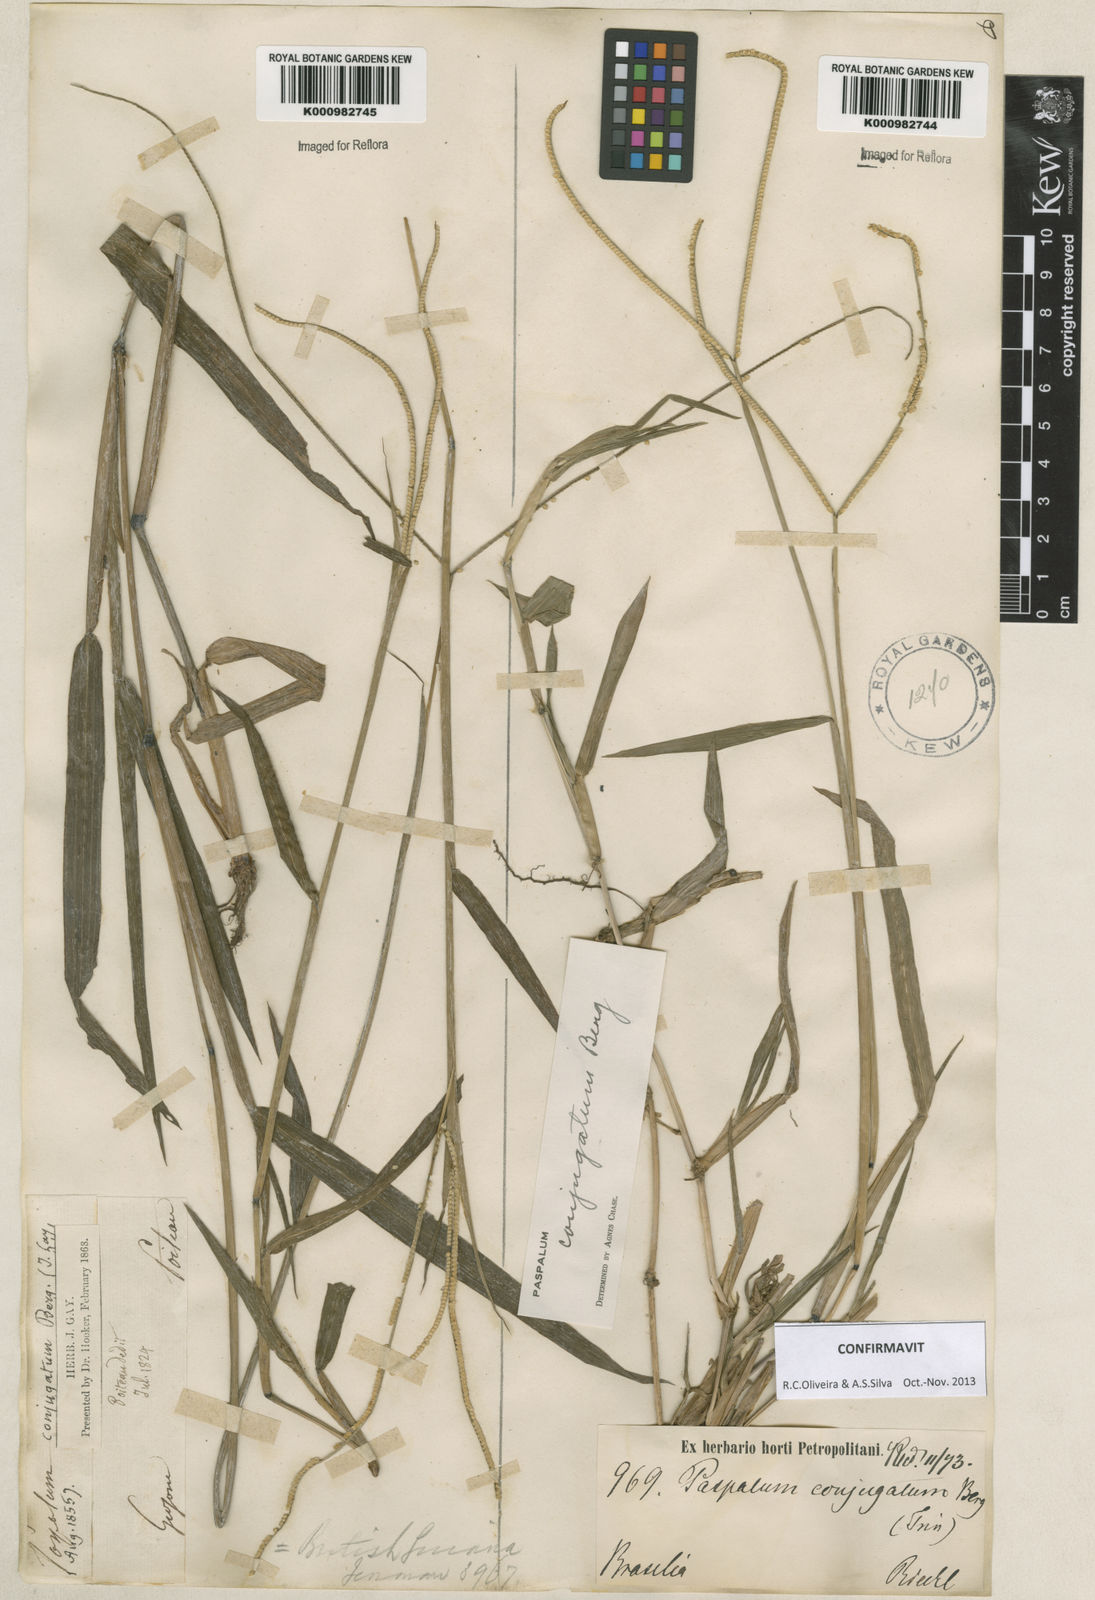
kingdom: Plantae
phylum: Tracheophyta
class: Liliopsida
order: Poales
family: Poaceae
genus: Paspalum
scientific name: Paspalum conjugatum
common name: Hilograss
